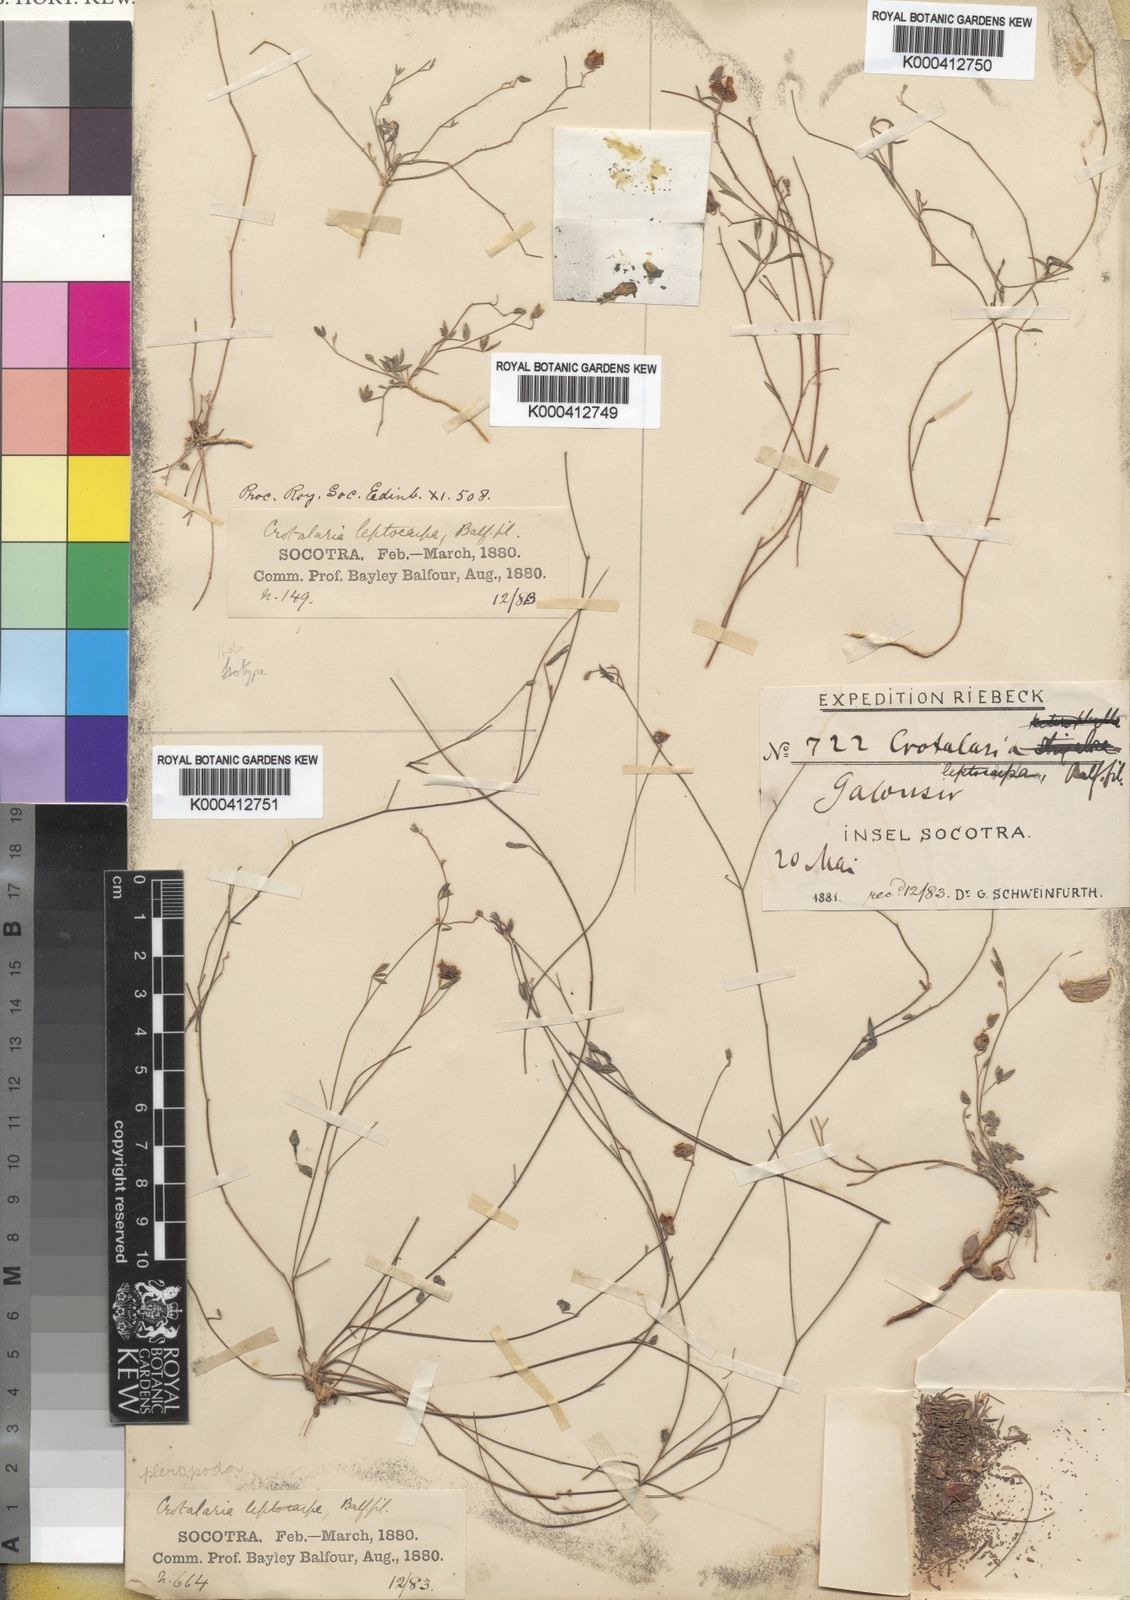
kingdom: Plantae
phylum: Tracheophyta
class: Magnoliopsida
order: Fabales
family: Fabaceae
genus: Crotalaria
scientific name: Crotalaria leptocarpa
